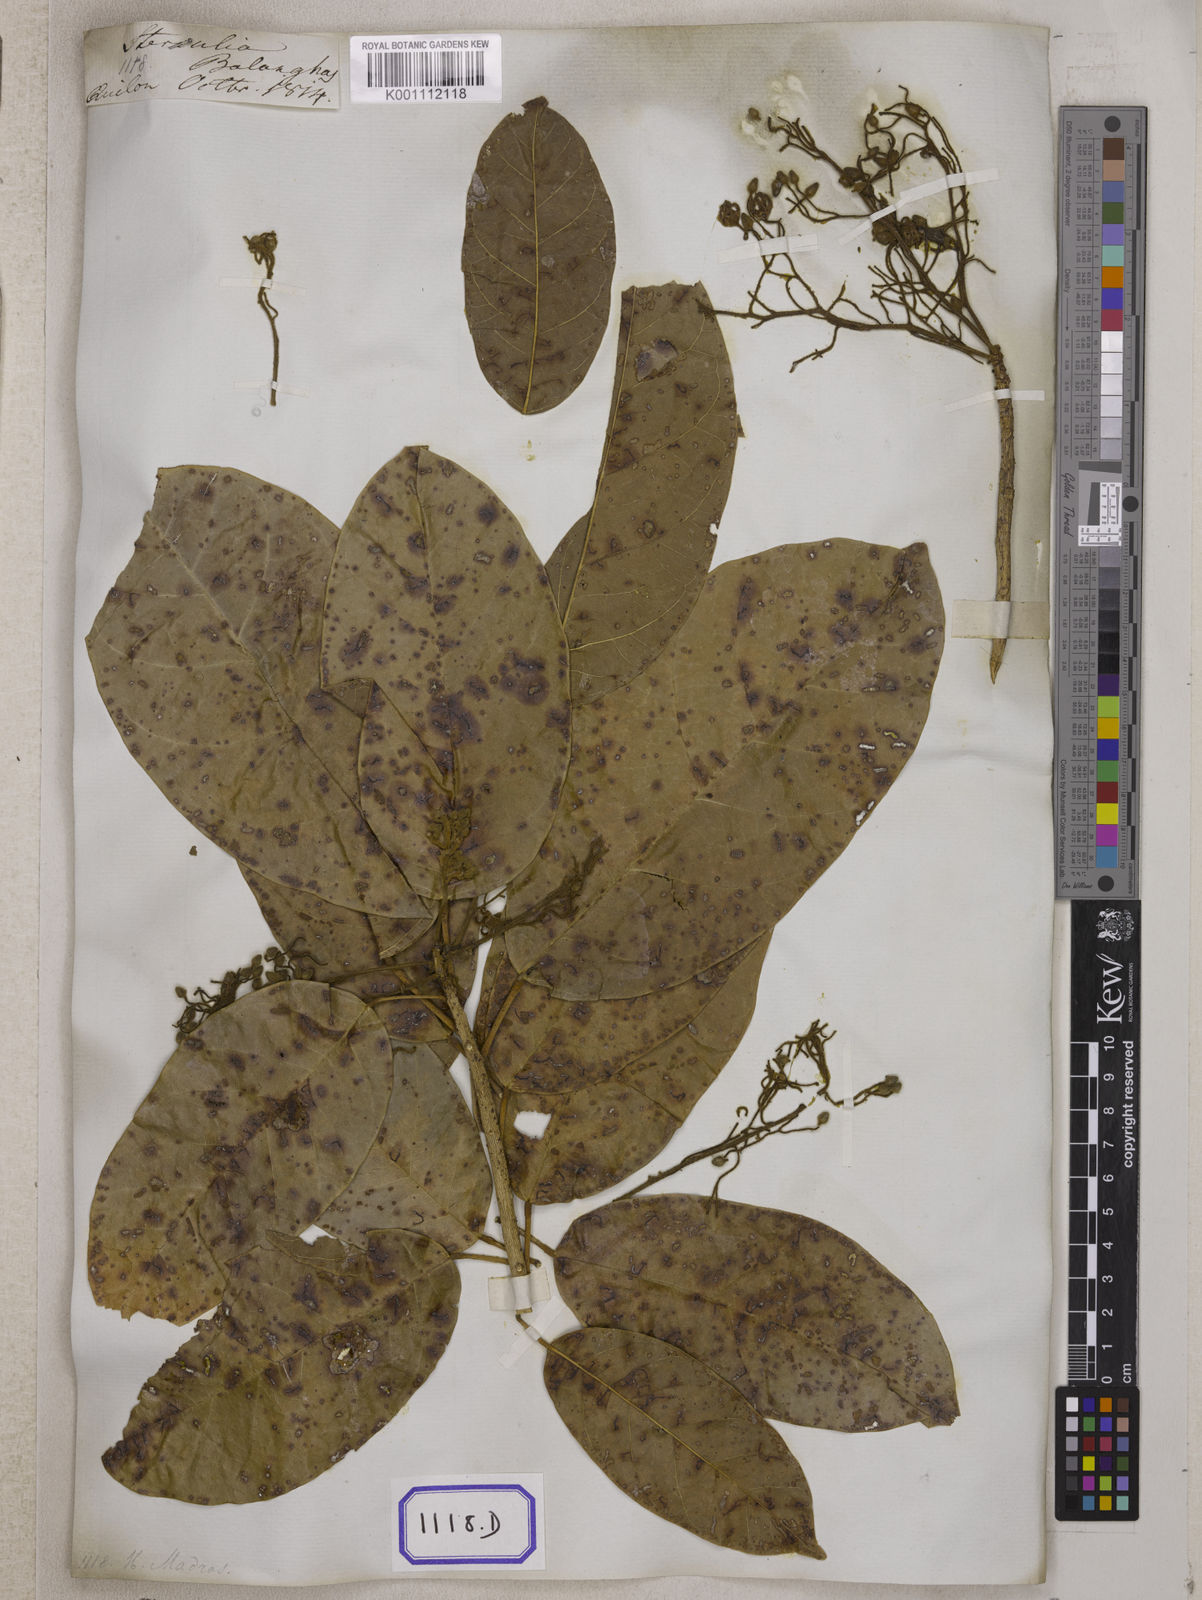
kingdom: Plantae
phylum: Tracheophyta
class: Magnoliopsida
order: Malvales
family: Malvaceae
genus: Sterculia
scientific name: Sterculia balanghas
